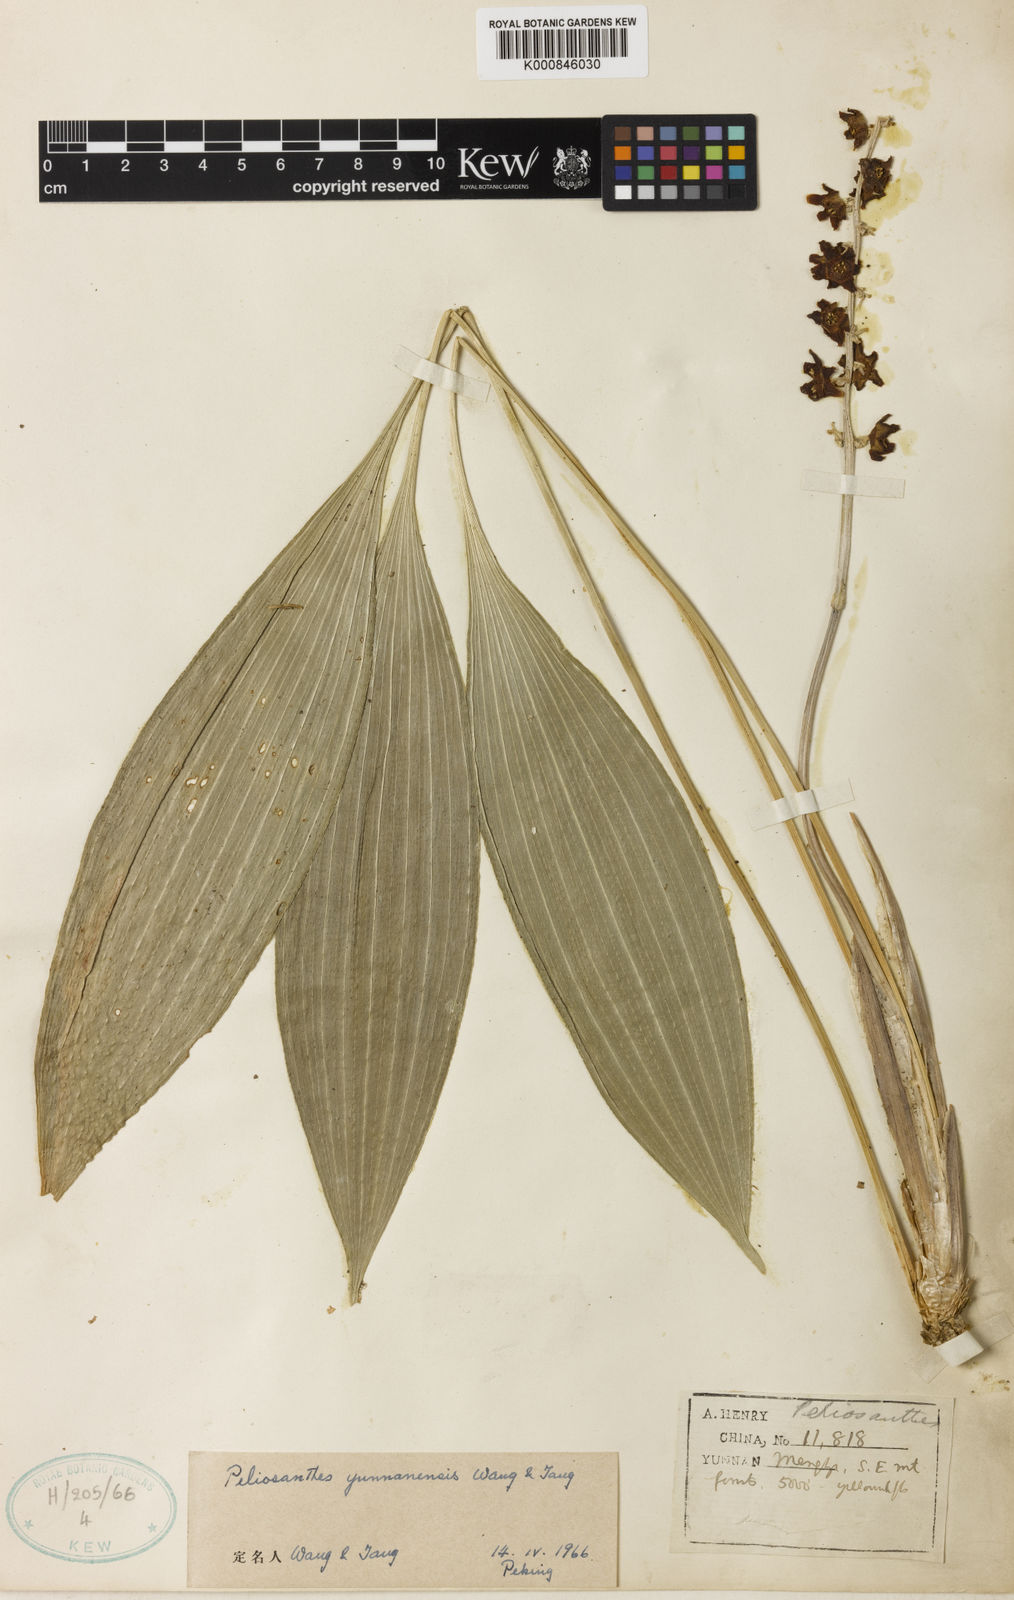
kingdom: Plantae
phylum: Tracheophyta
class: Liliopsida
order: Asparagales
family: Asparagaceae
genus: Peliosanthes
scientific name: Peliosanthes teta
